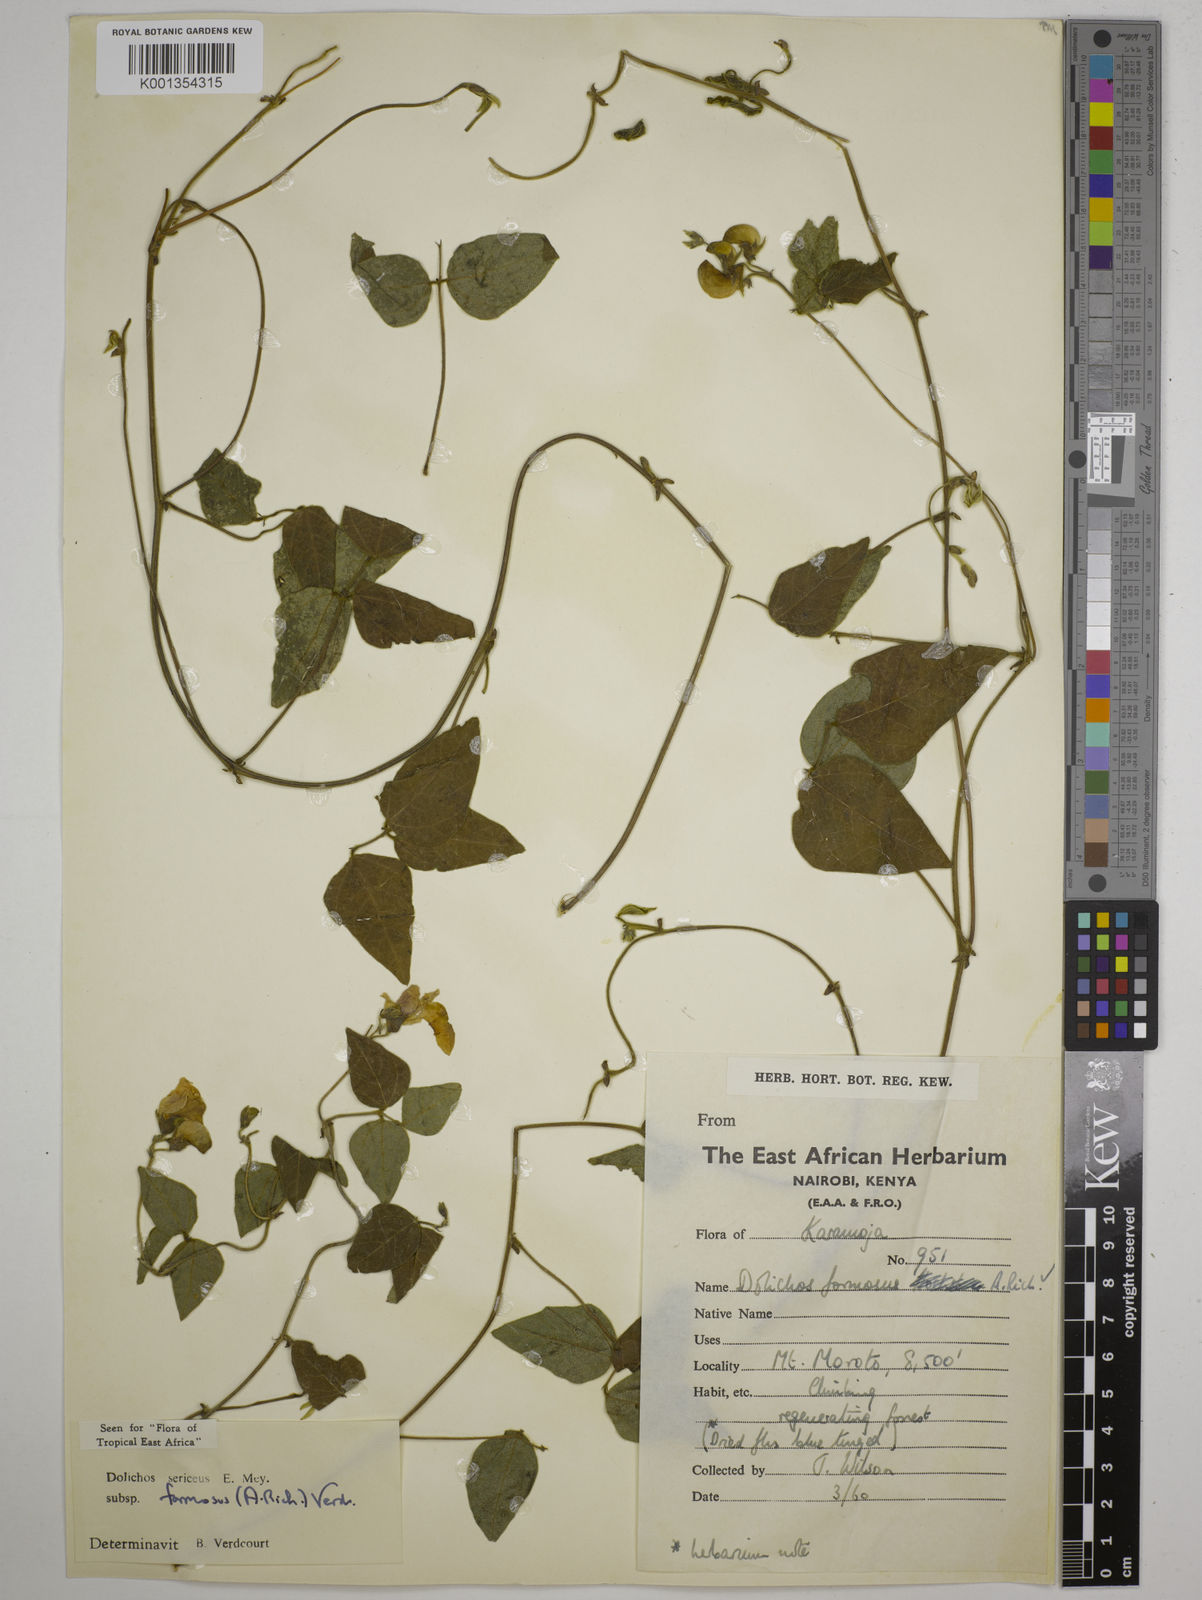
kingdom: Plantae
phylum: Tracheophyta
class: Magnoliopsida
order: Fabales
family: Fabaceae
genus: Dolichos
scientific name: Dolichos
